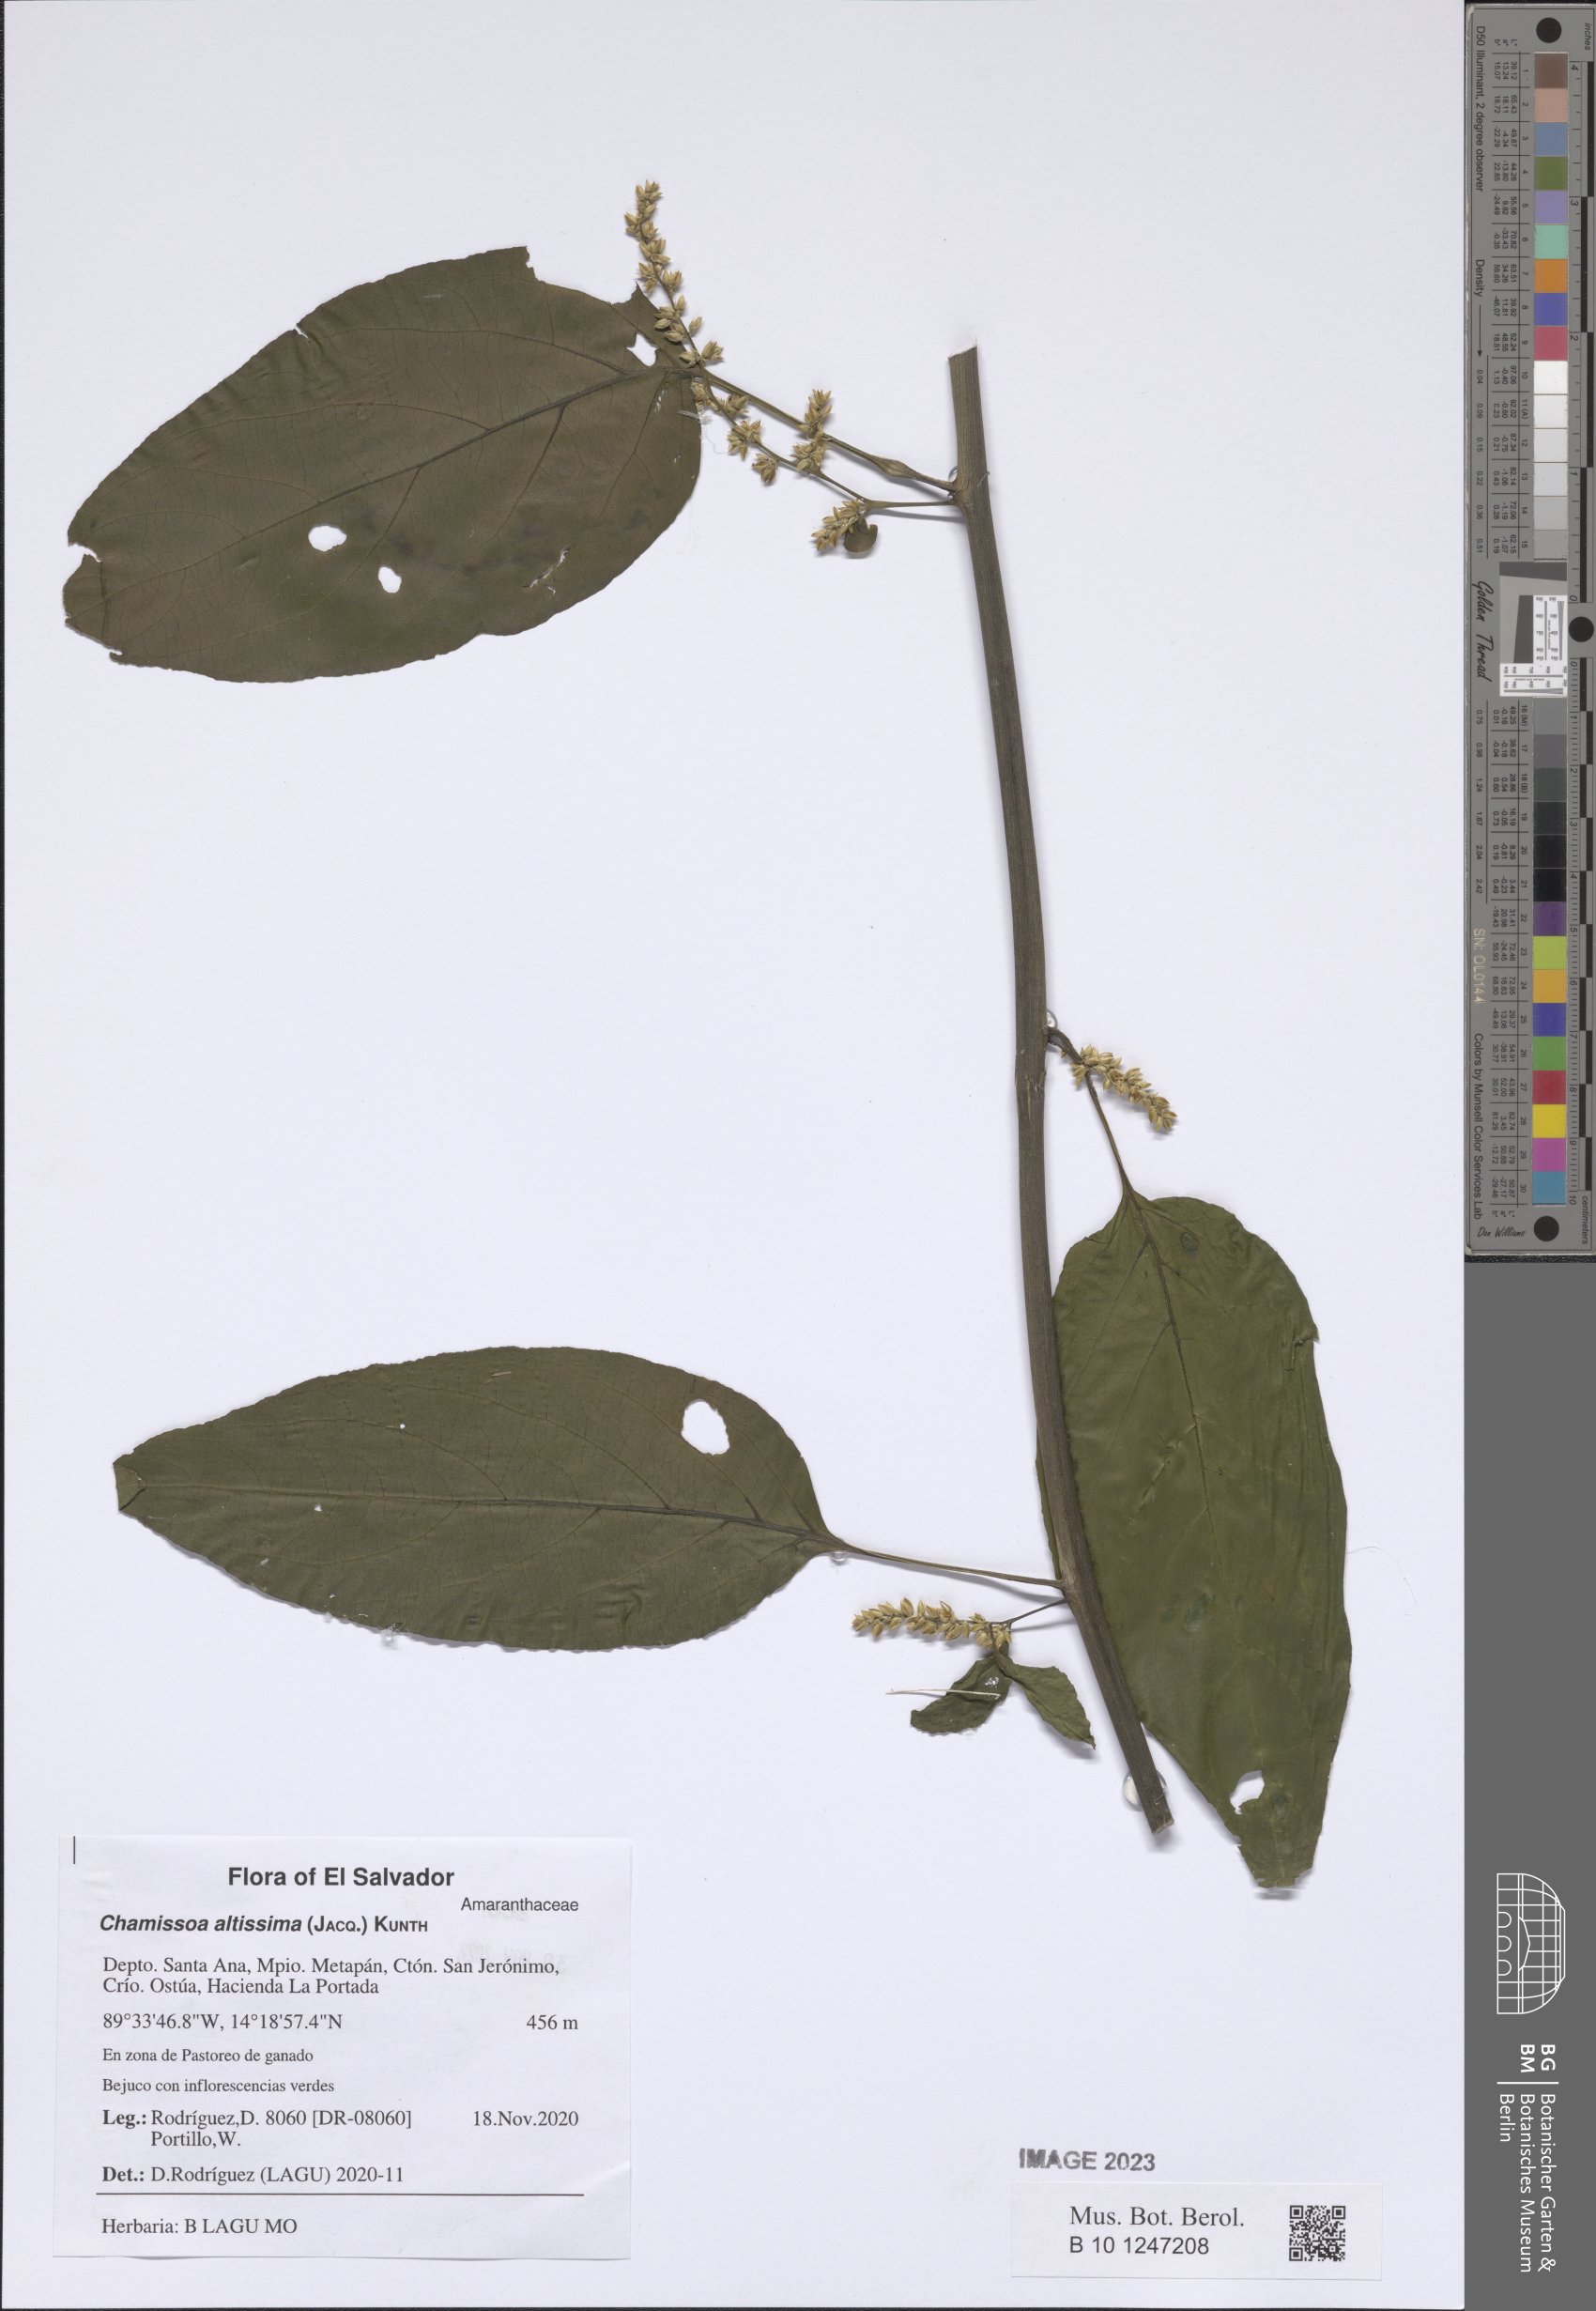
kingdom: Plantae
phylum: Tracheophyta
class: Magnoliopsida
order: Caryophyllales
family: Amaranthaceae
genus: Chamissoa
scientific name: Chamissoa altissima
